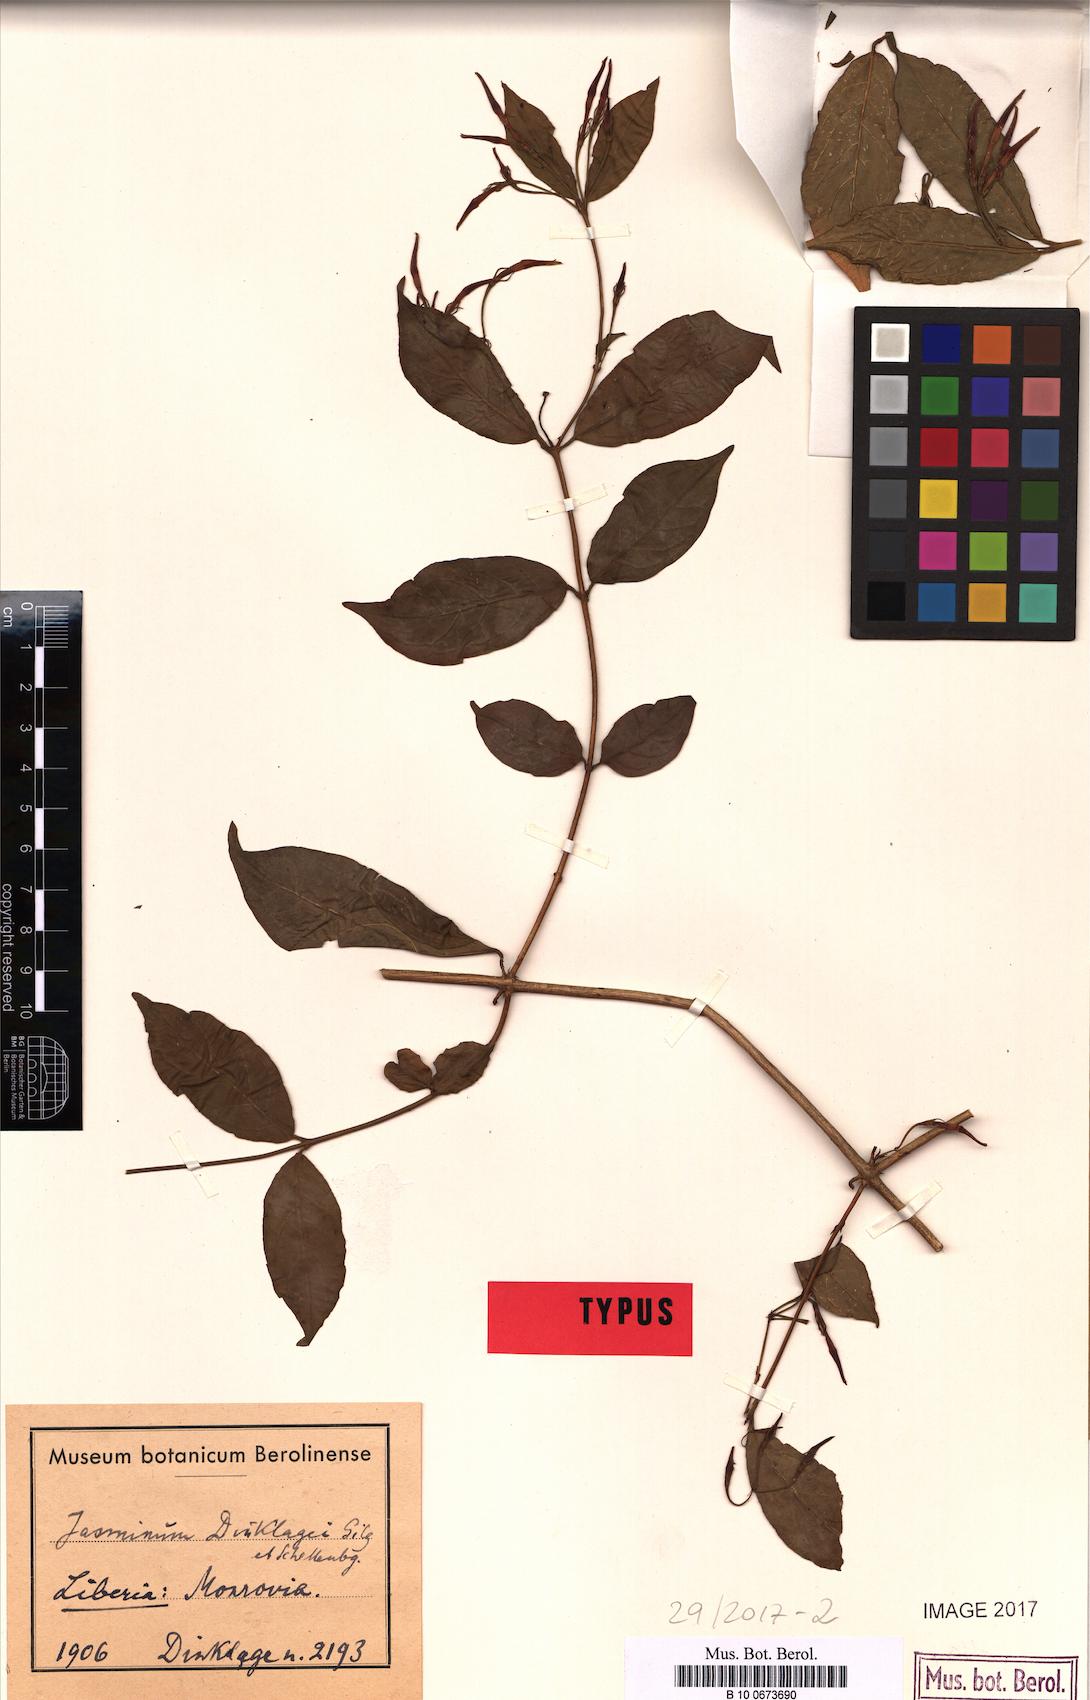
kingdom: Plantae
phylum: Tracheophyta
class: Magnoliopsida
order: Lamiales
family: Oleaceae
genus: Jasminum
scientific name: Jasminum dinklagei
